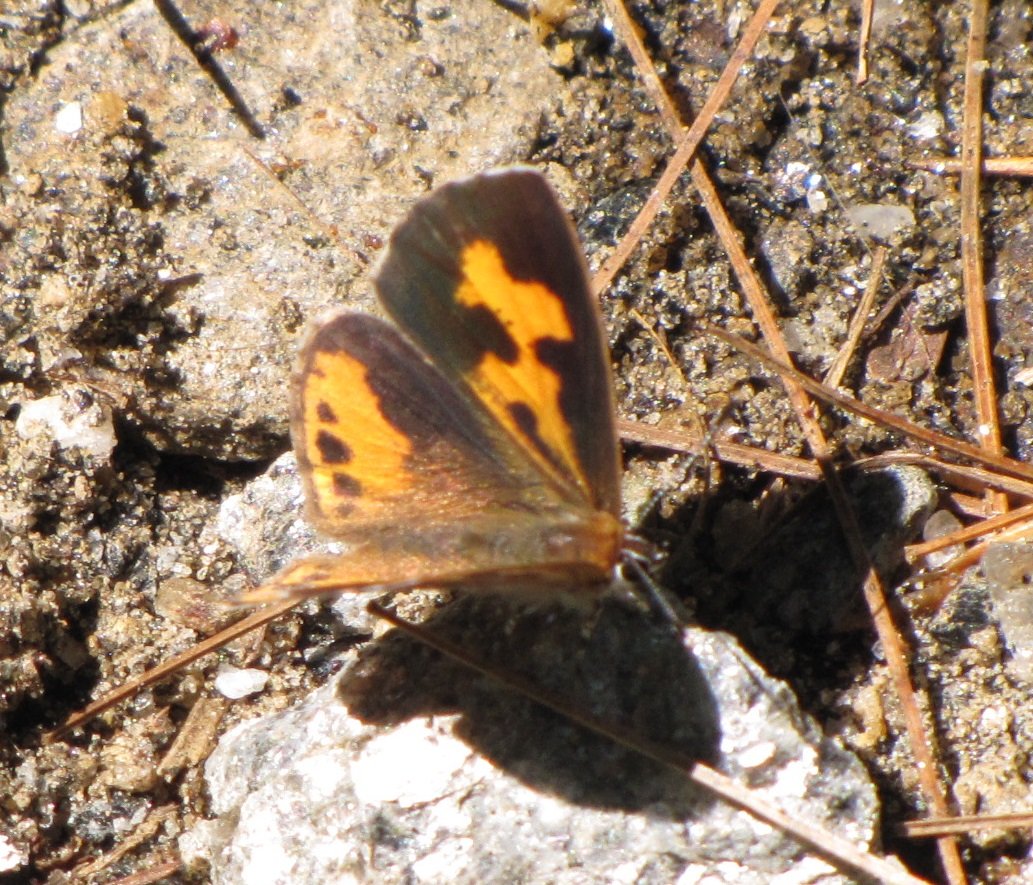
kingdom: Animalia
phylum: Arthropoda
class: Insecta
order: Lepidoptera
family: Lycaenidae
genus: Feniseca
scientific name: Feniseca tarquinius
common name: Harvester
